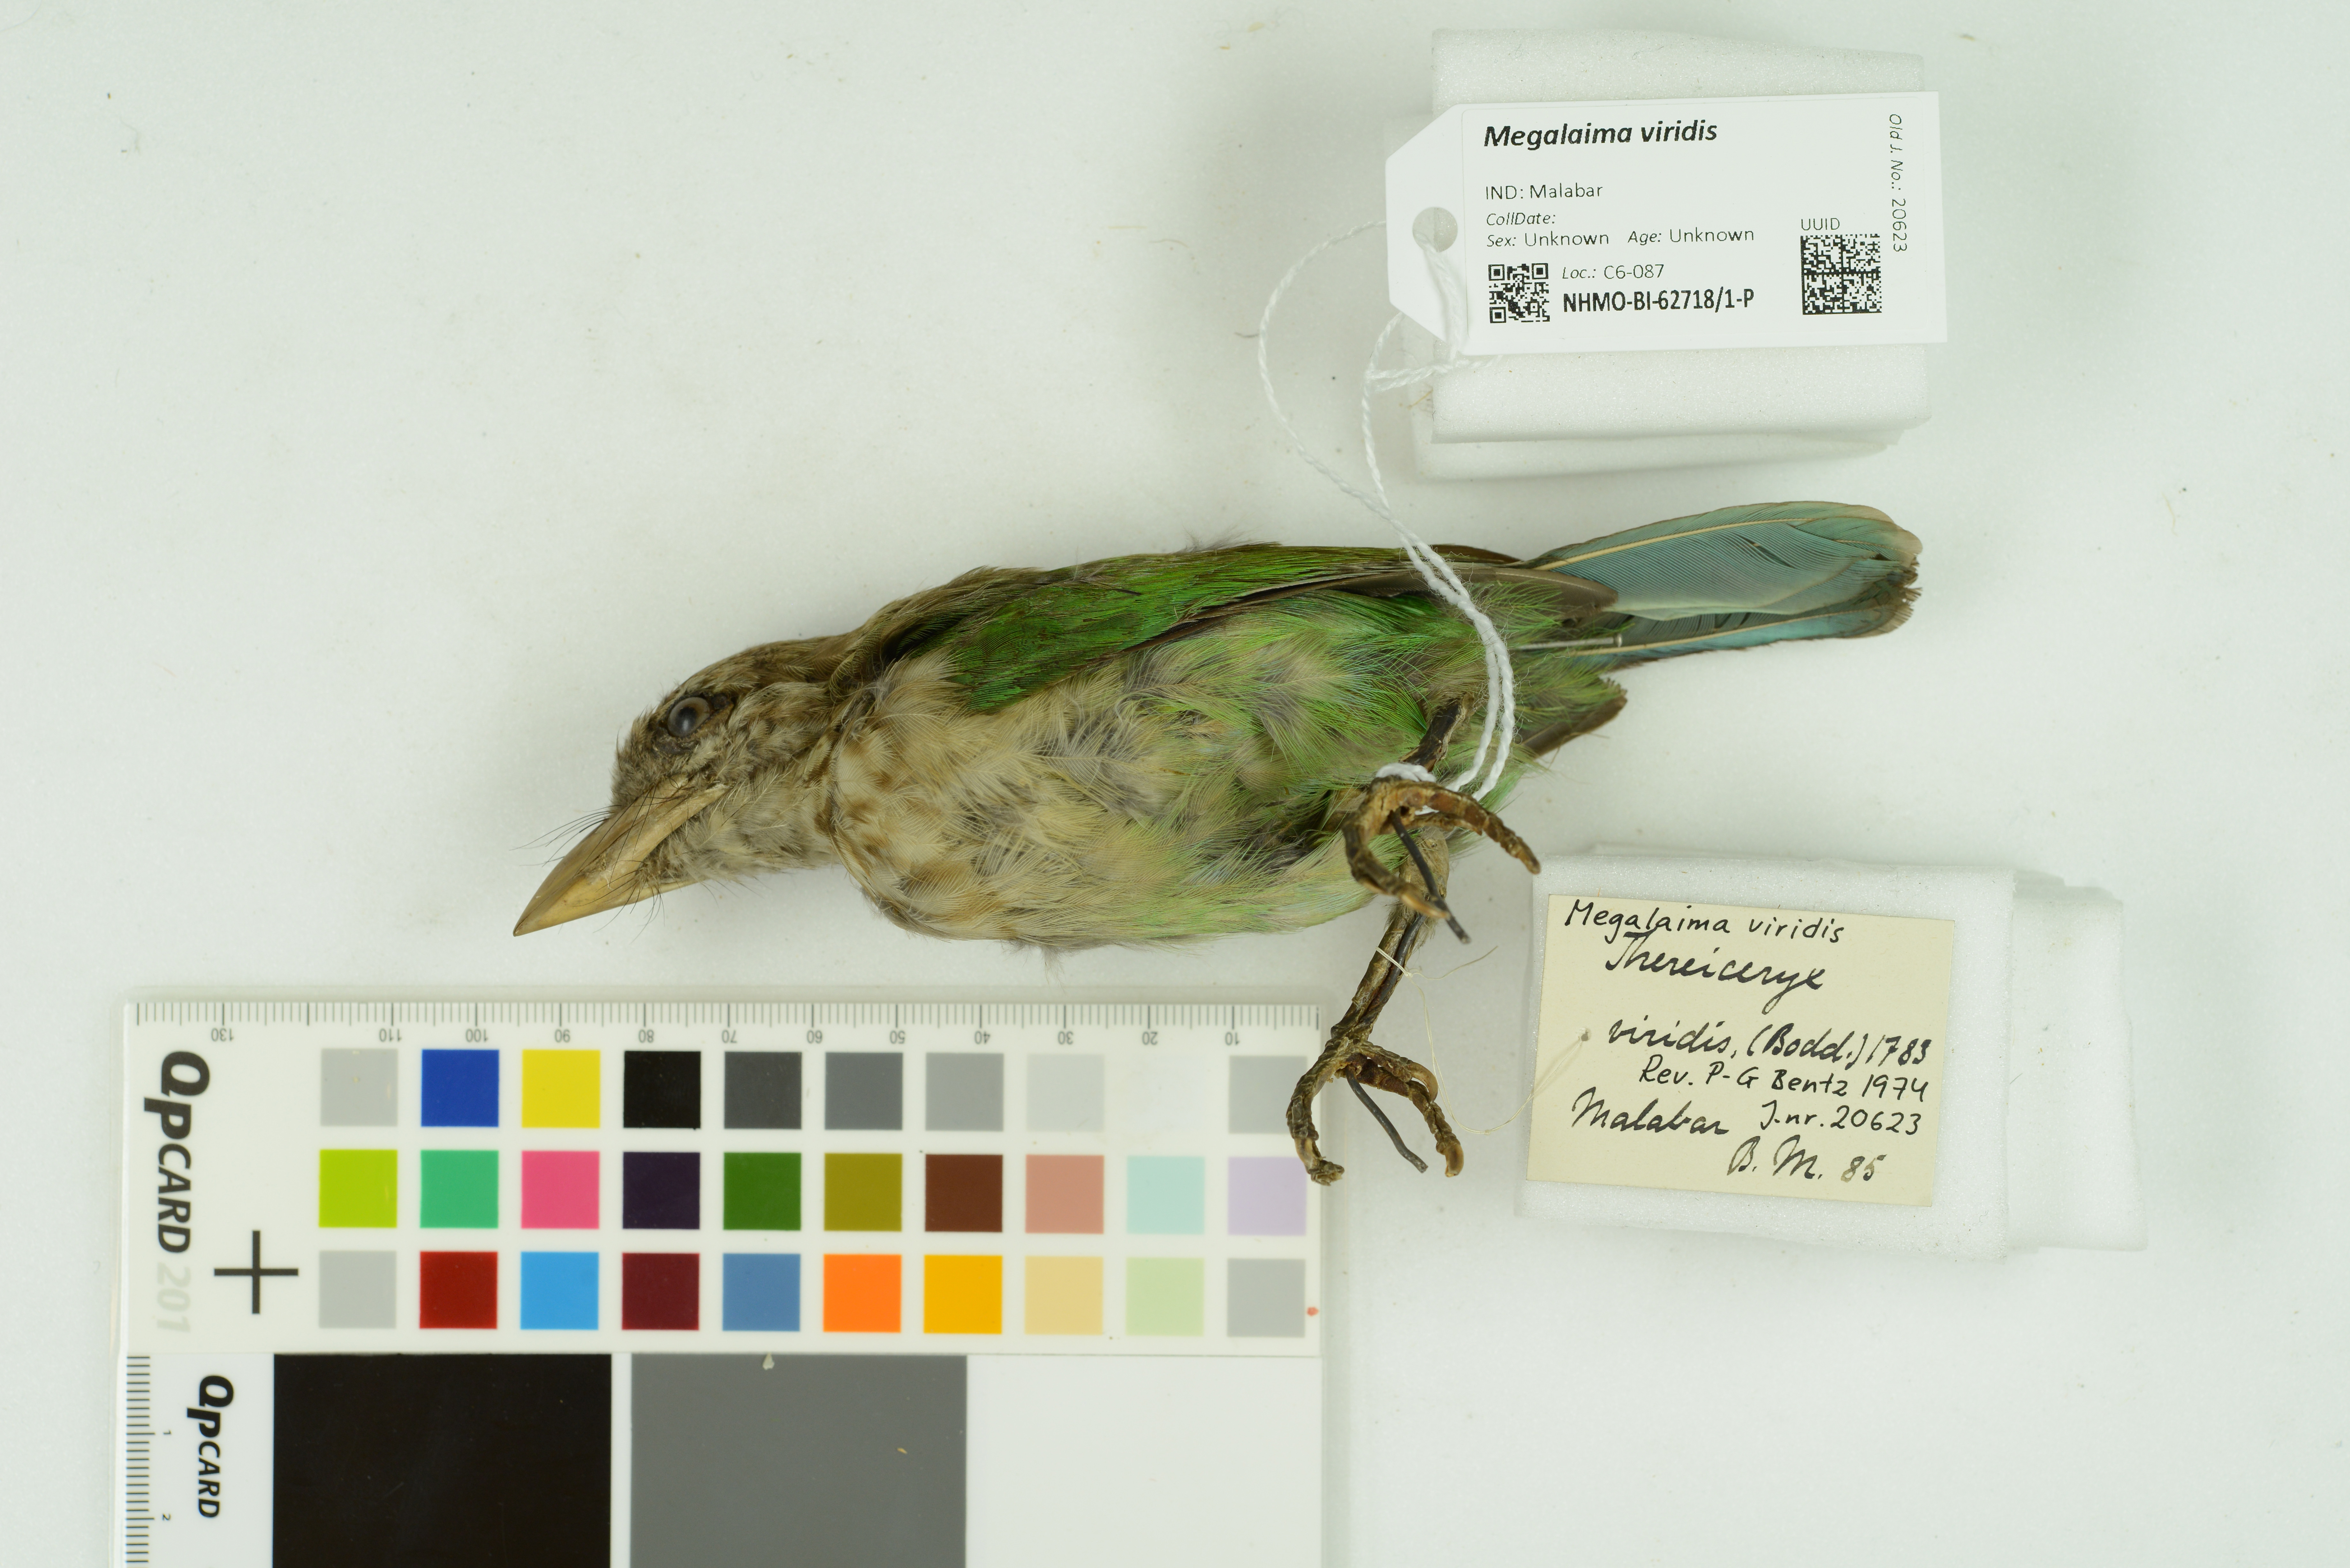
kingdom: Animalia
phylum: Chordata
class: Aves
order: Piciformes
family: Megalaimidae
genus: Psilopogon
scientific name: Psilopogon viridis
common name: White-cheeked barbet
